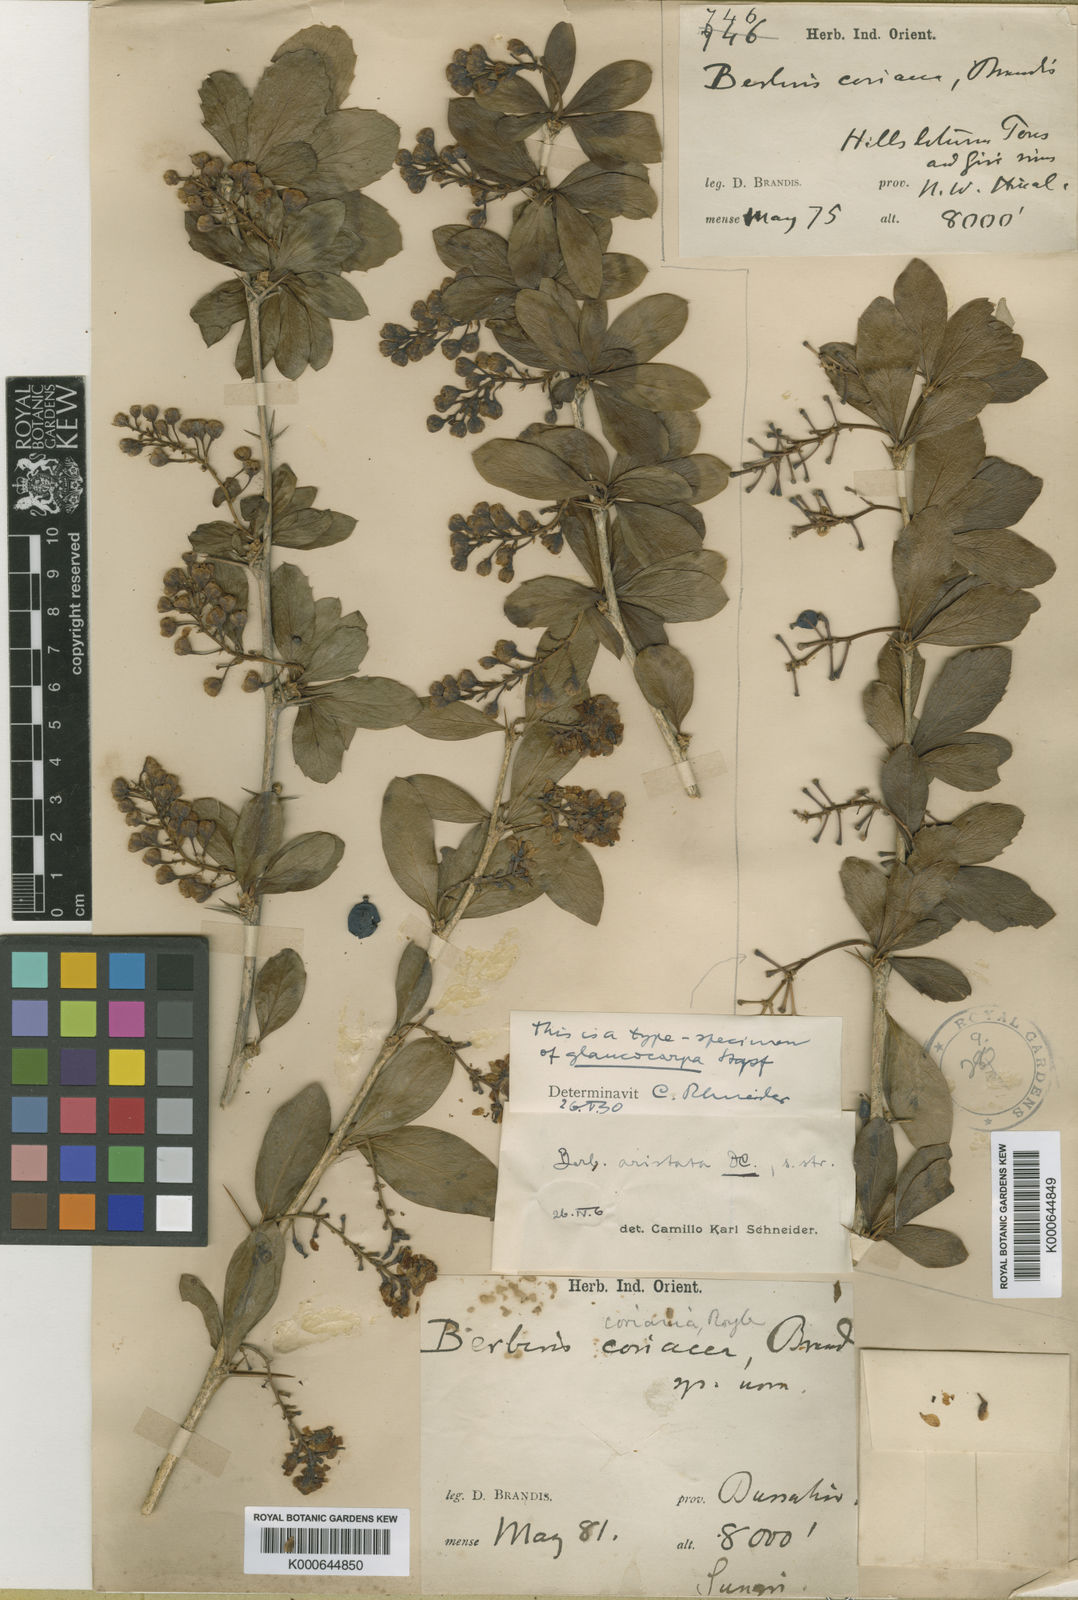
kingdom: Plantae
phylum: Tracheophyta
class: Magnoliopsida
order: Ranunculales
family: Berberidaceae
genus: Berberis
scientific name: Berberis aristata
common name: Indian barberry
